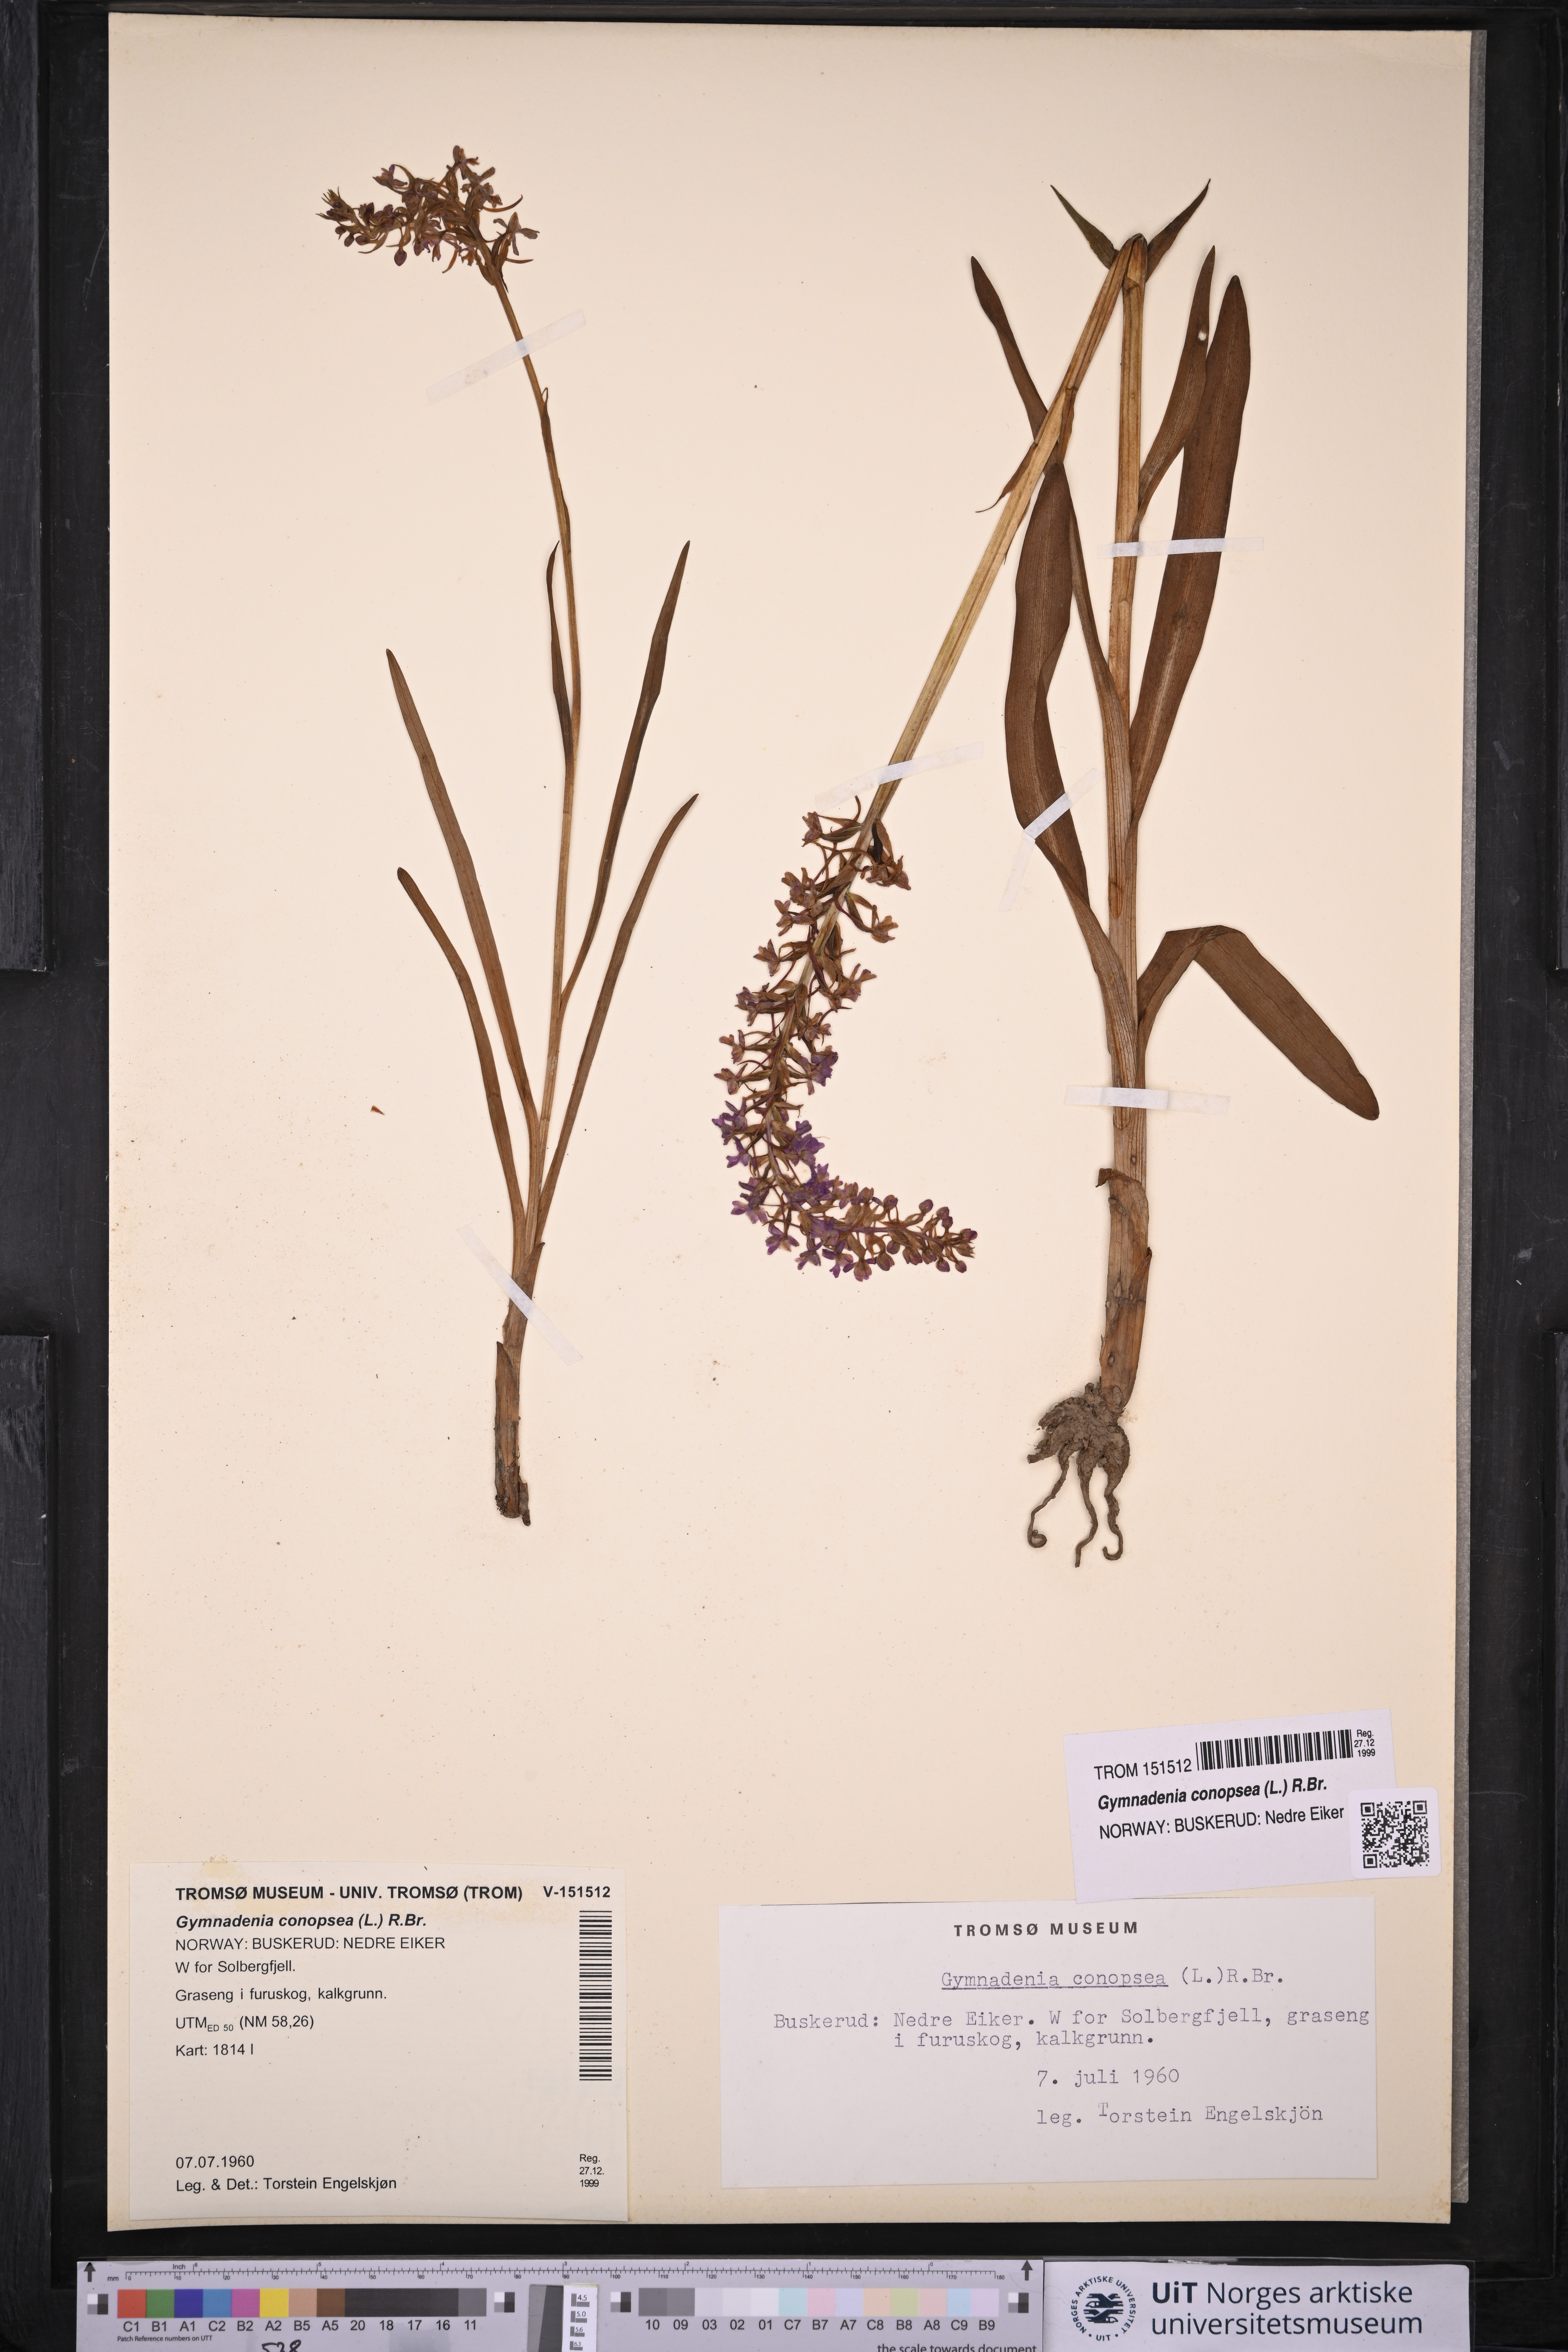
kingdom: Plantae
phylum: Tracheophyta
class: Liliopsida
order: Asparagales
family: Orchidaceae
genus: Gymnadenia
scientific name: Gymnadenia conopsea
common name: Fragrant orchid
